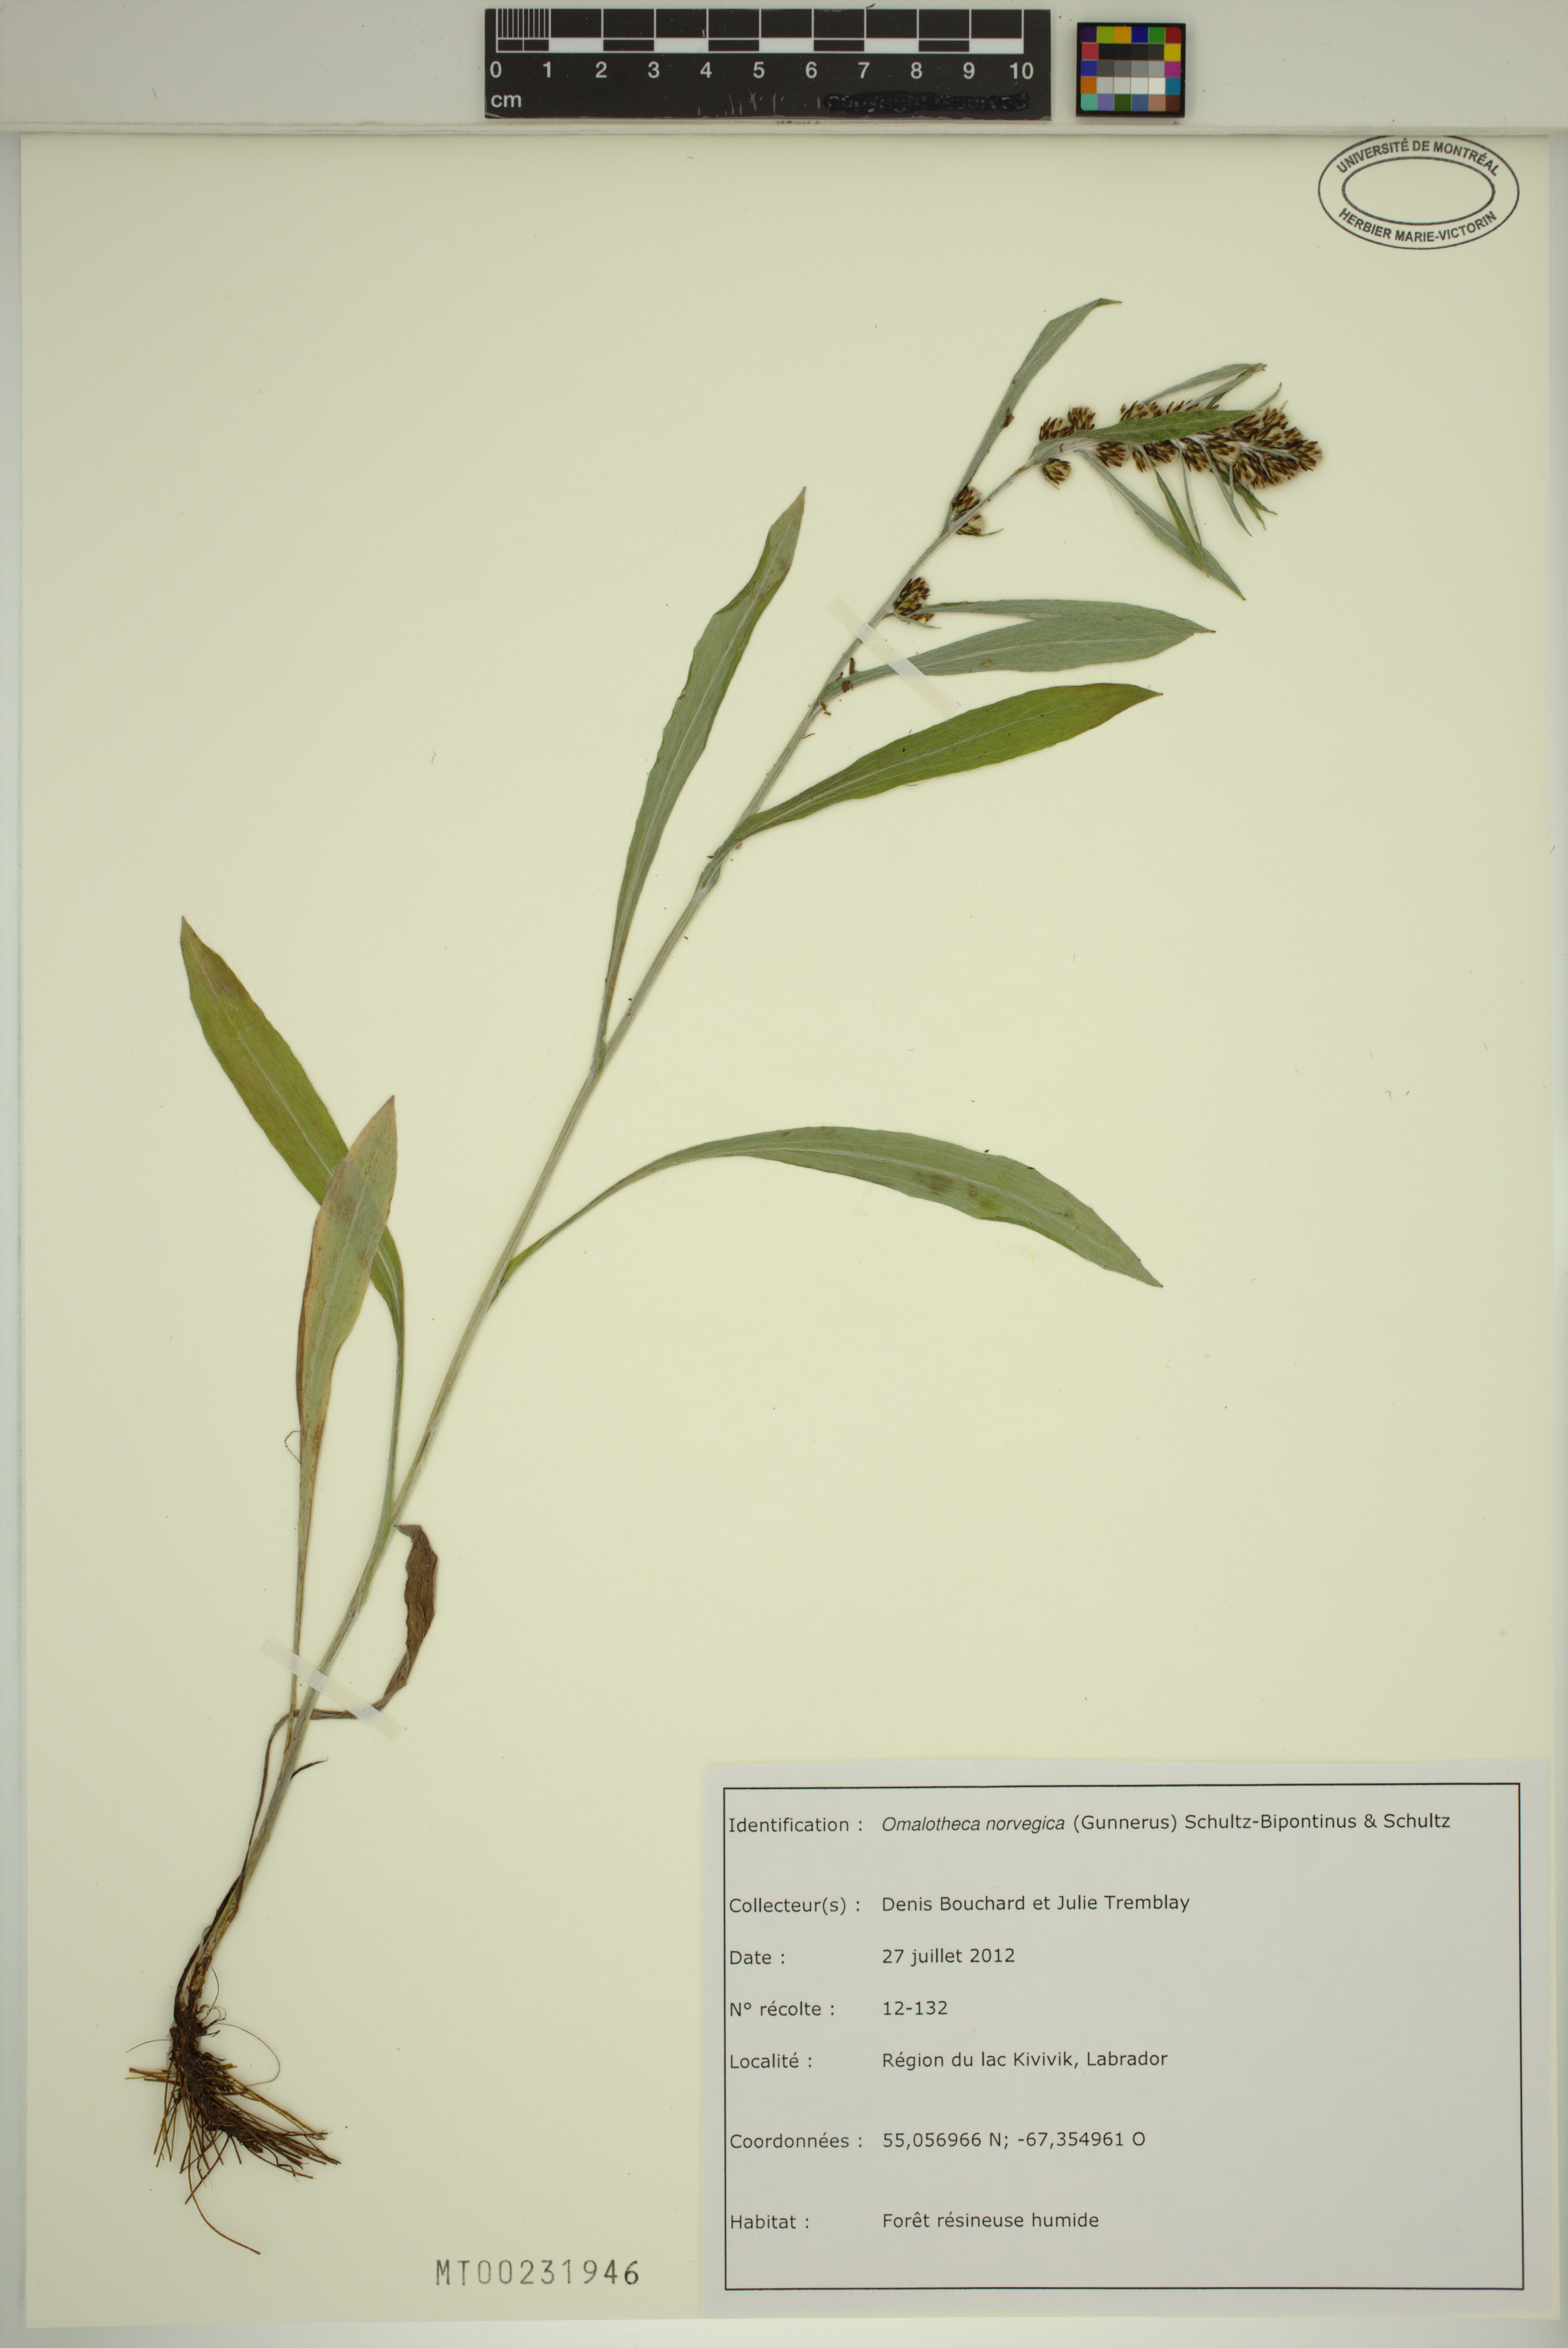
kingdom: Plantae
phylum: Tracheophyta
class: Magnoliopsida
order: Asterales
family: Asteraceae
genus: Omalotheca
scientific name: Omalotheca norvegica
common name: Norwegian arctic-cudweed
